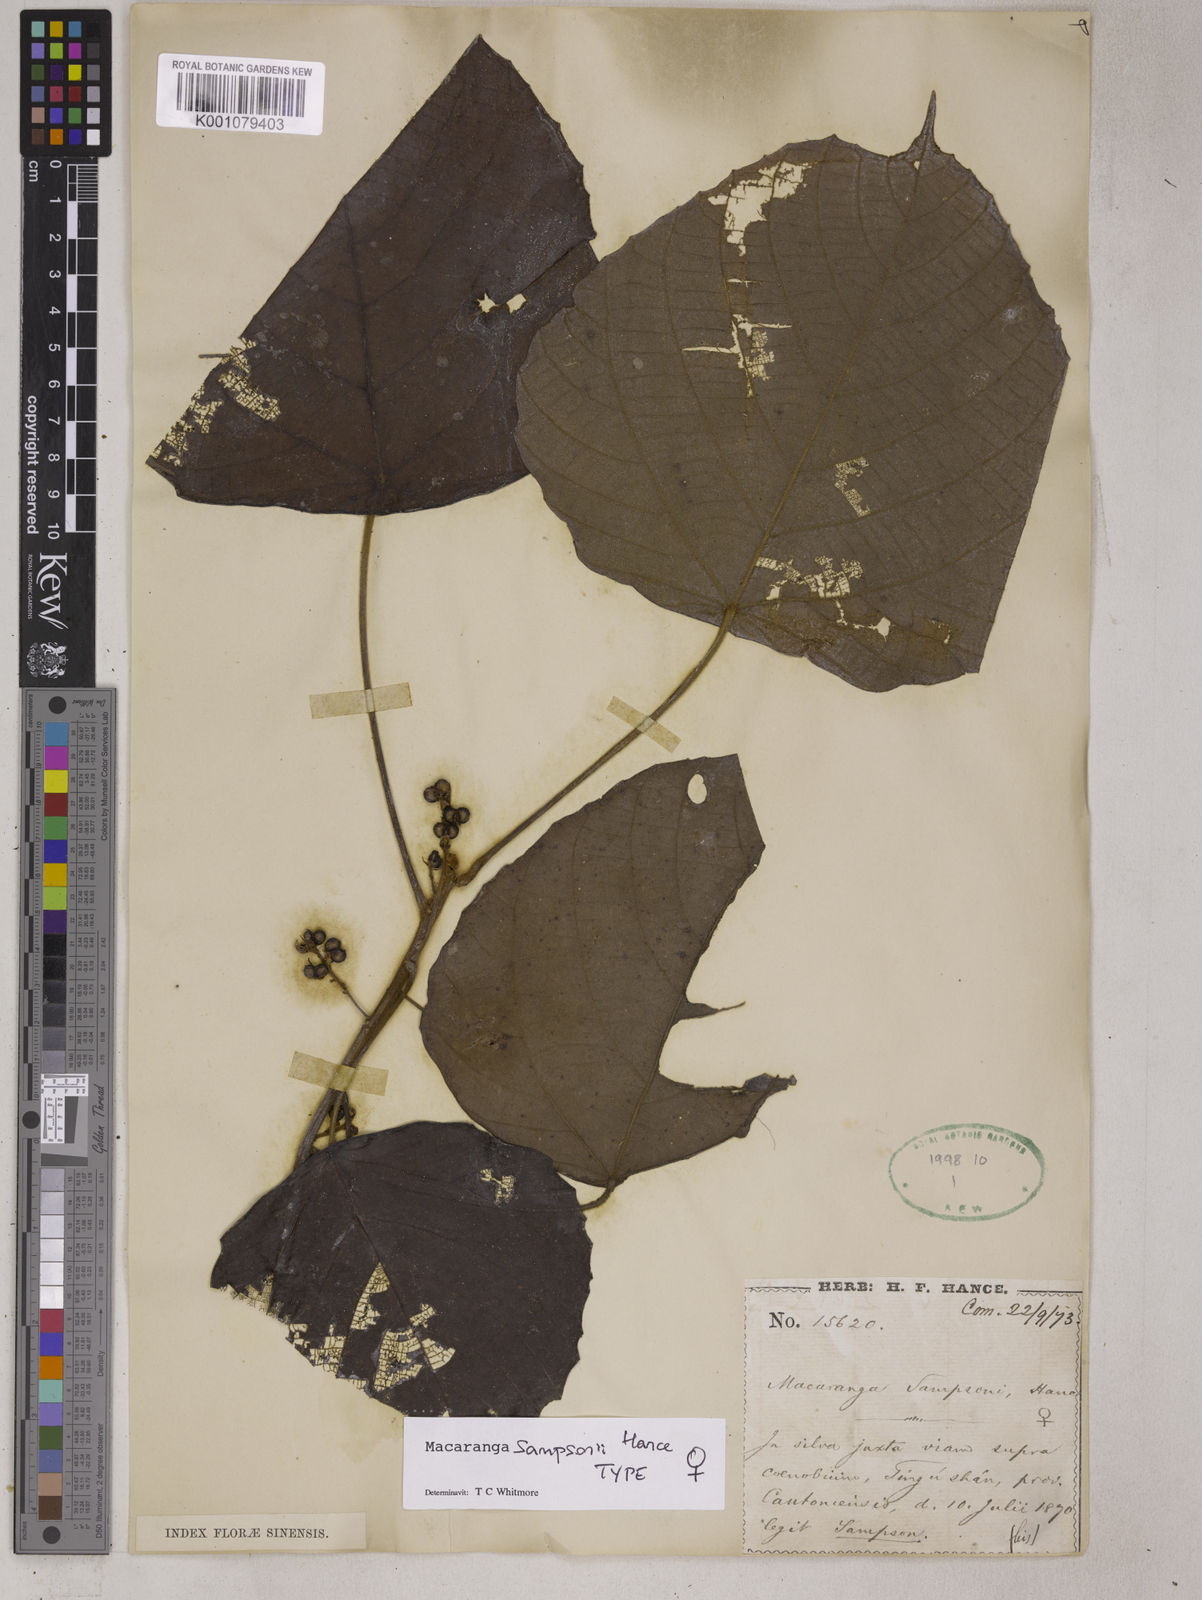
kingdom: Plantae
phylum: Tracheophyta
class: Magnoliopsida
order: Malpighiales
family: Euphorbiaceae
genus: Macaranga
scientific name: Macaranga sampsonii
